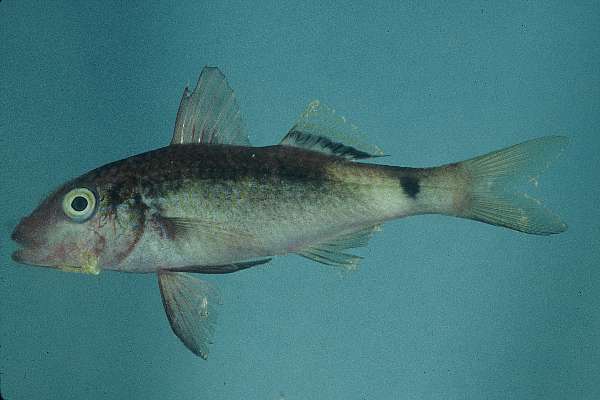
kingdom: Animalia
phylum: Chordata
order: Perciformes
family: Mullidae
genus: Parupeneus
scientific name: Parupeneus macronemus
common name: Long-barbel goatfish
